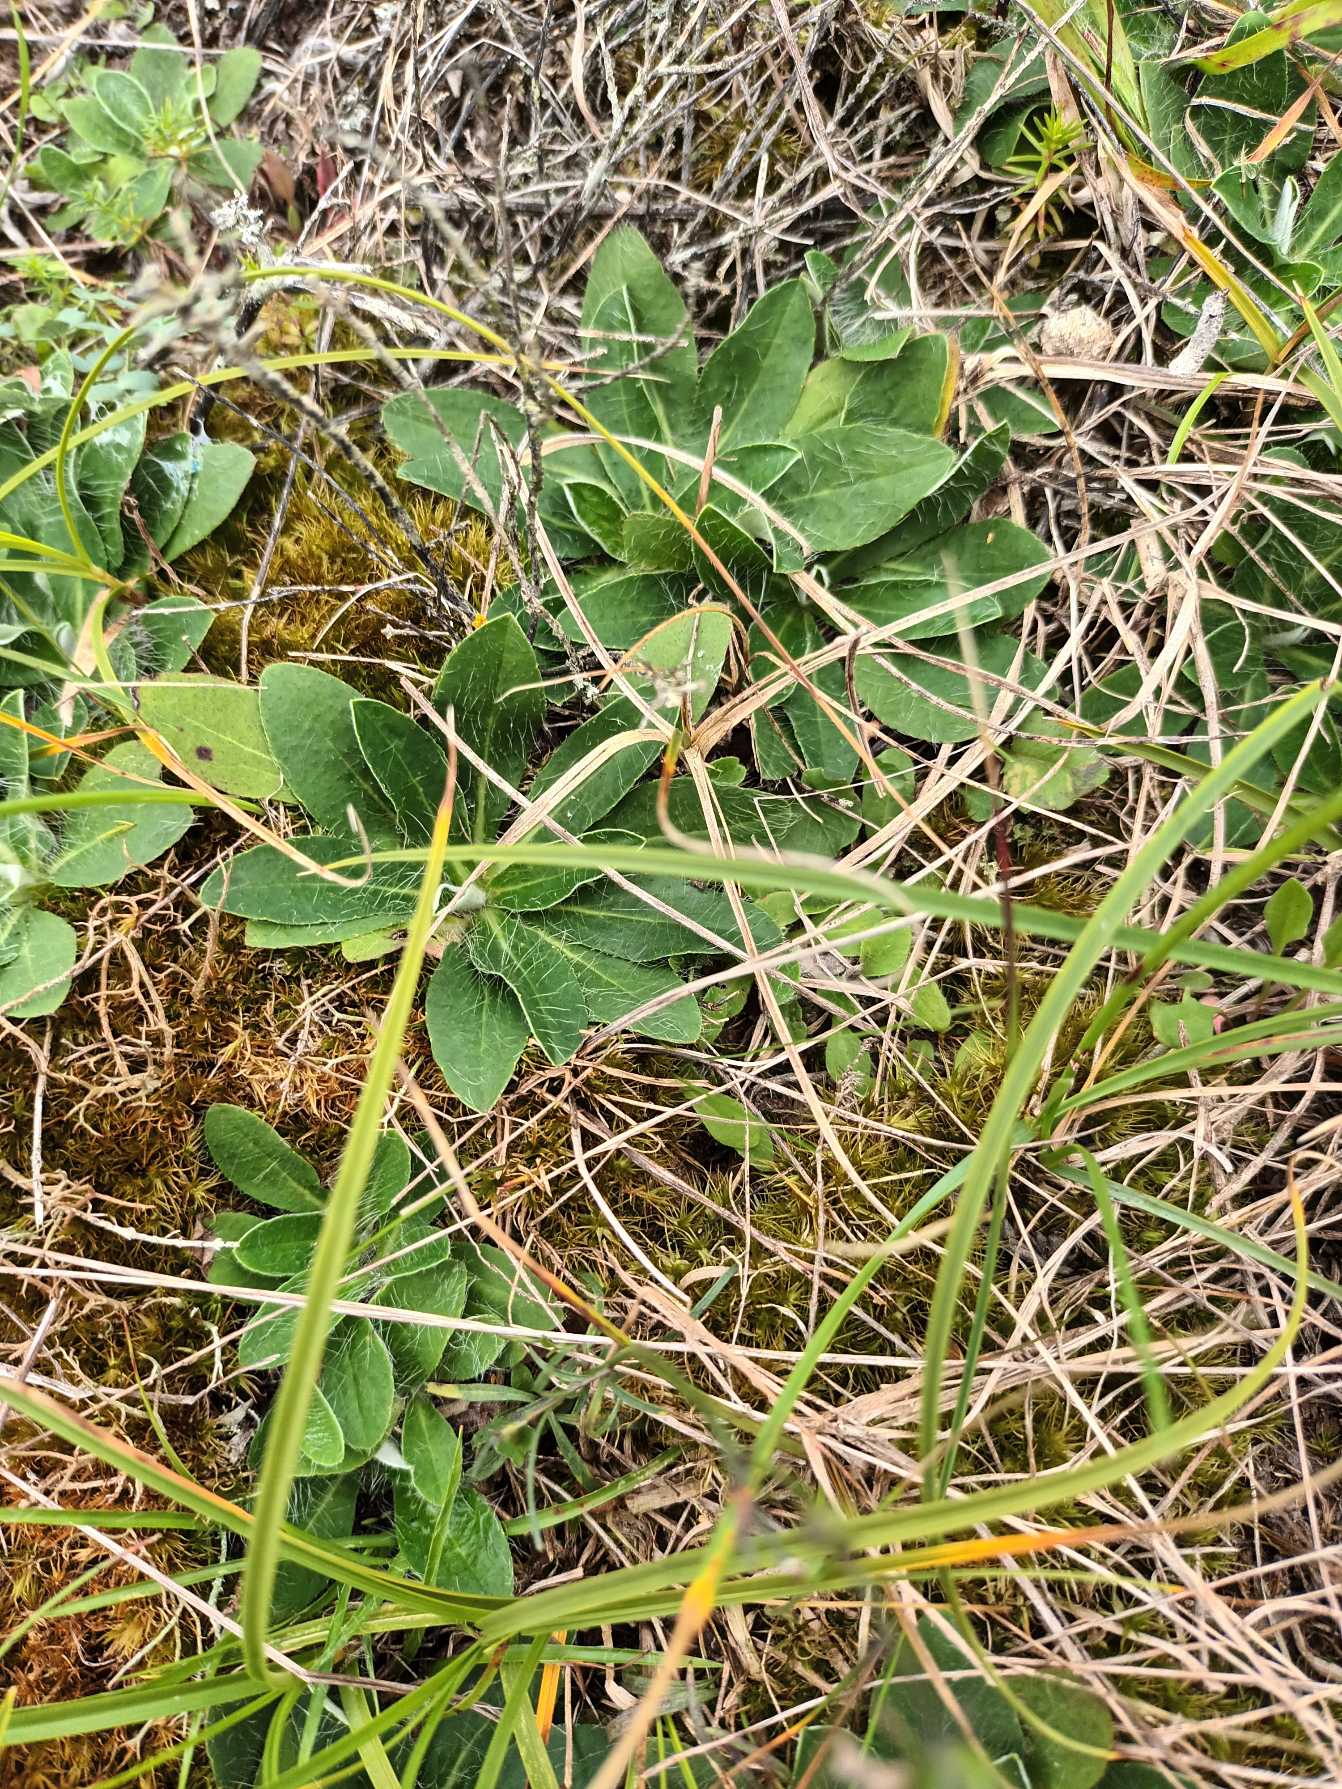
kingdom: Plantae
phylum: Tracheophyta
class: Magnoliopsida
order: Asterales
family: Asteraceae
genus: Pilosella
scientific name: Pilosella peleteriana
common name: Klit-høgeurt
